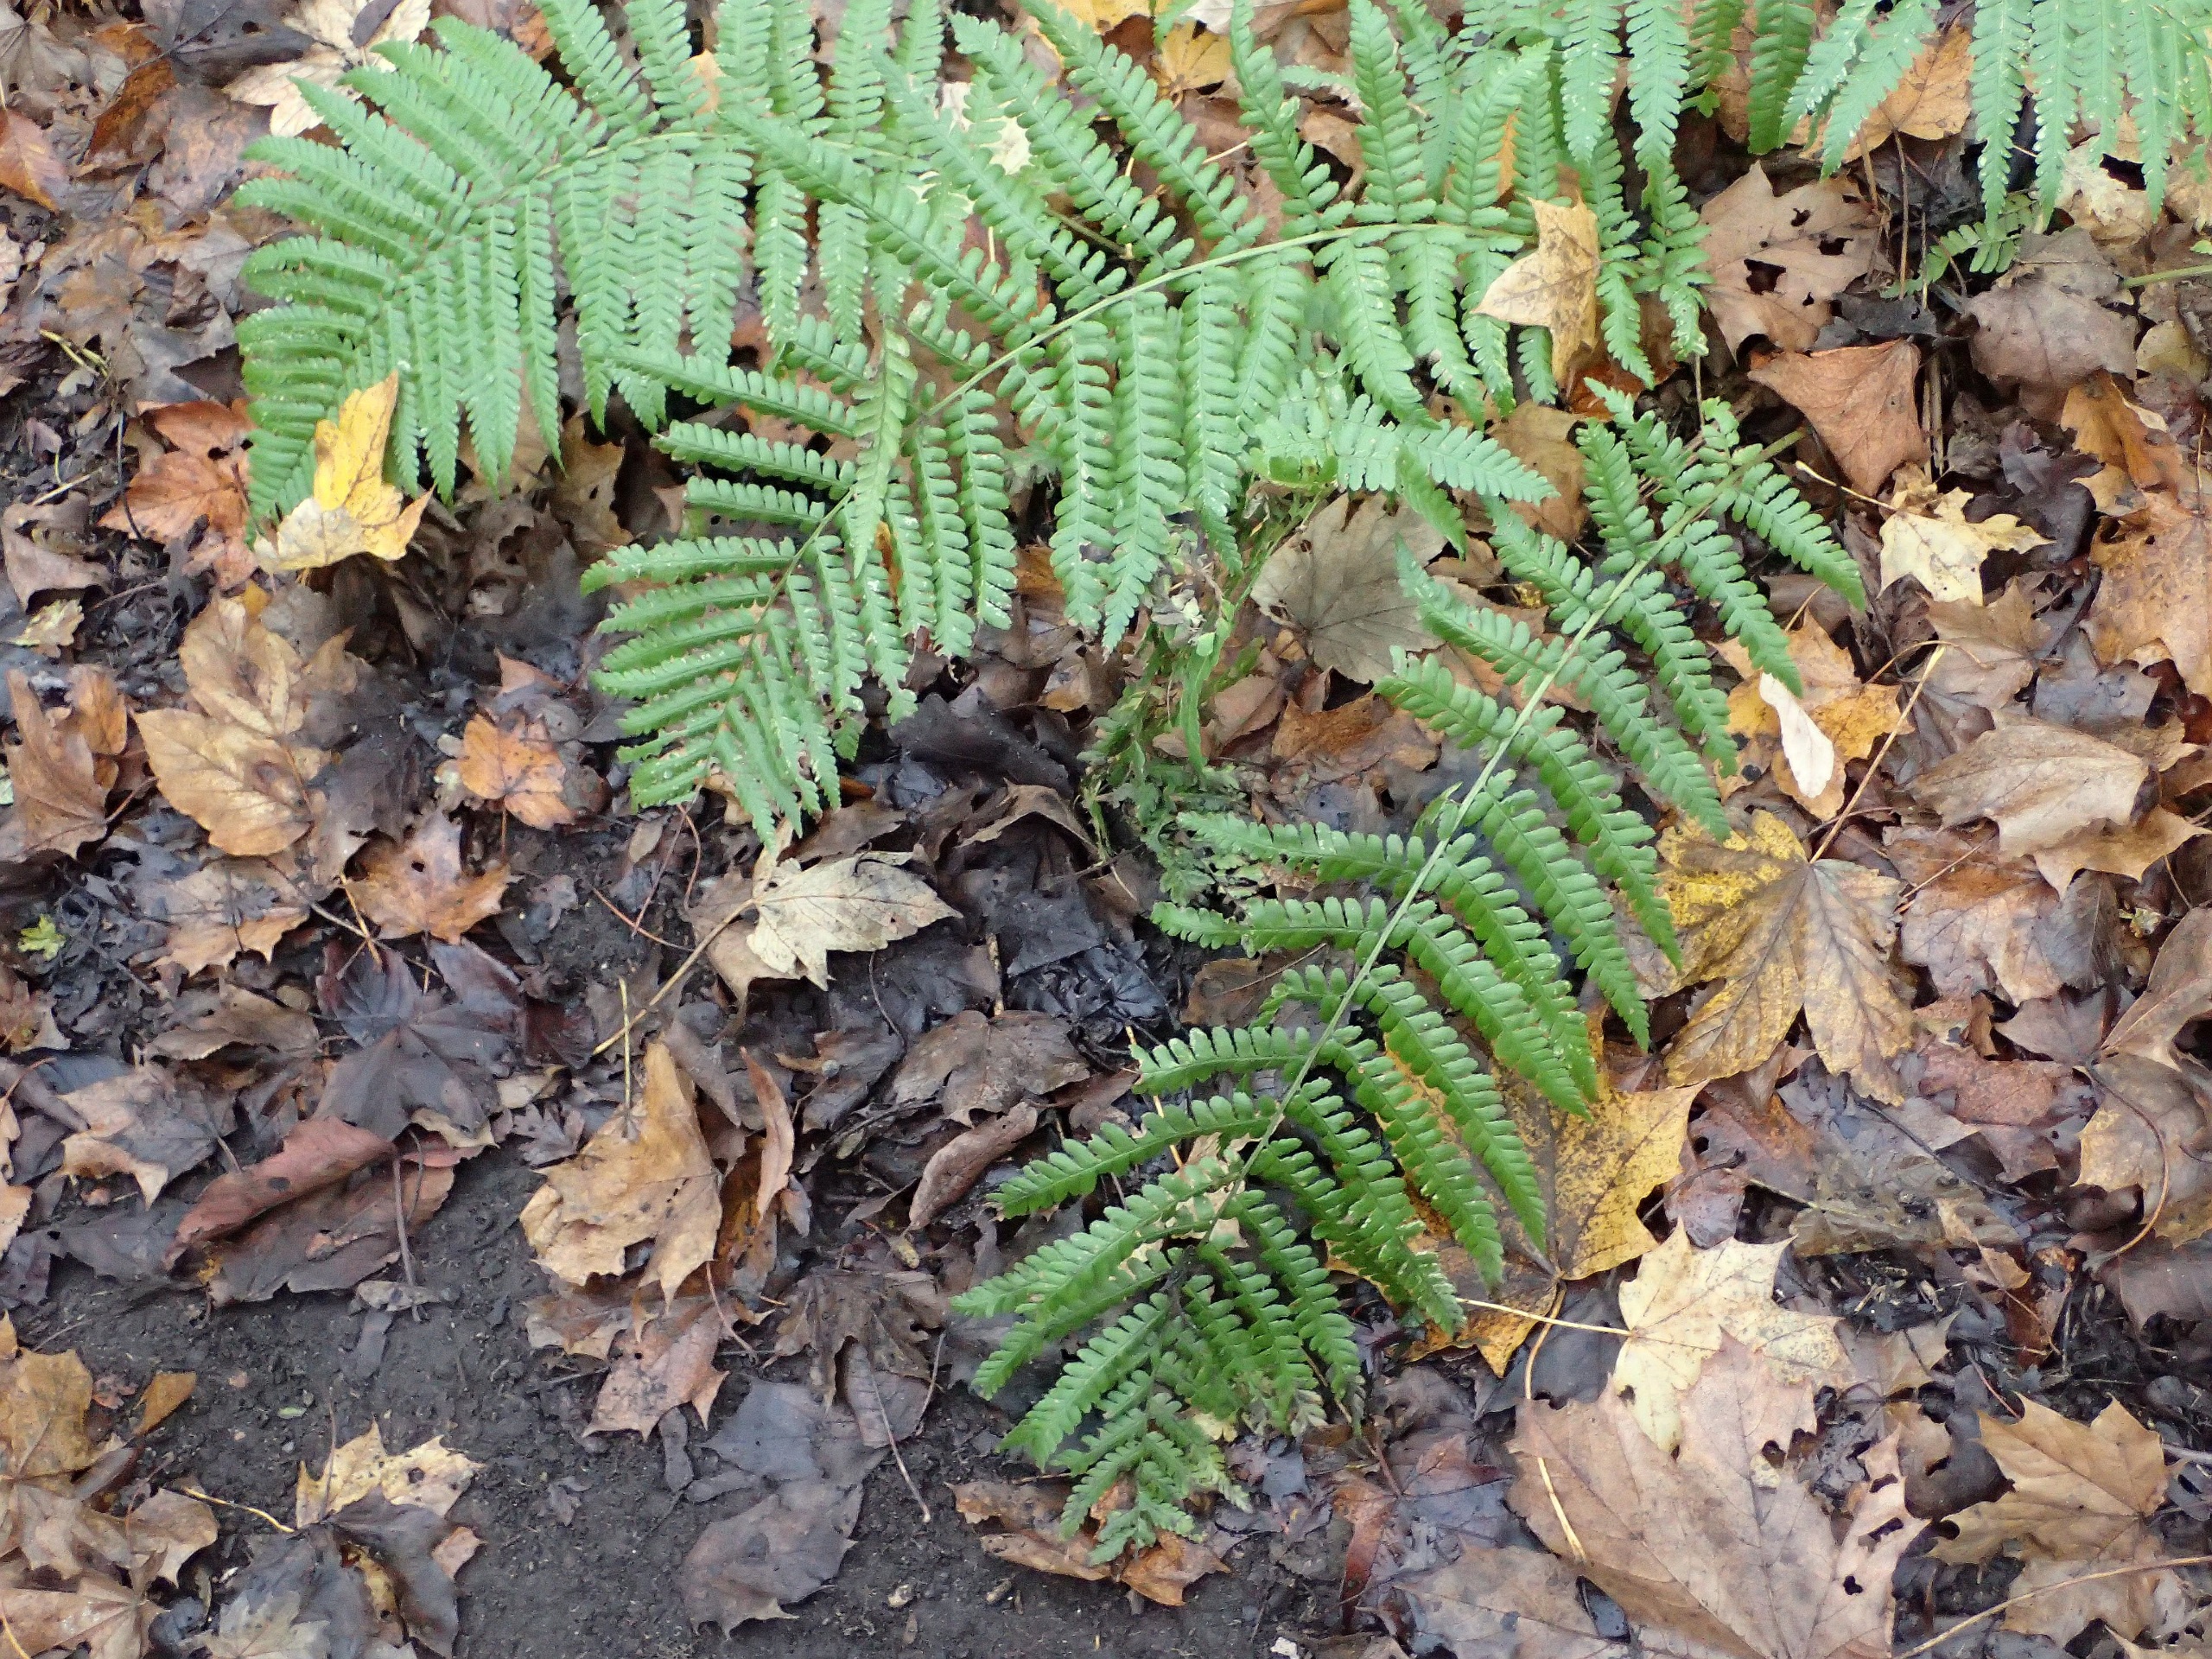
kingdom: Plantae
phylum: Tracheophyta
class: Polypodiopsida
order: Polypodiales
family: Dryopteridaceae
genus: Dryopteris
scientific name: Dryopteris filix-mas
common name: Almindelig mangeløv
